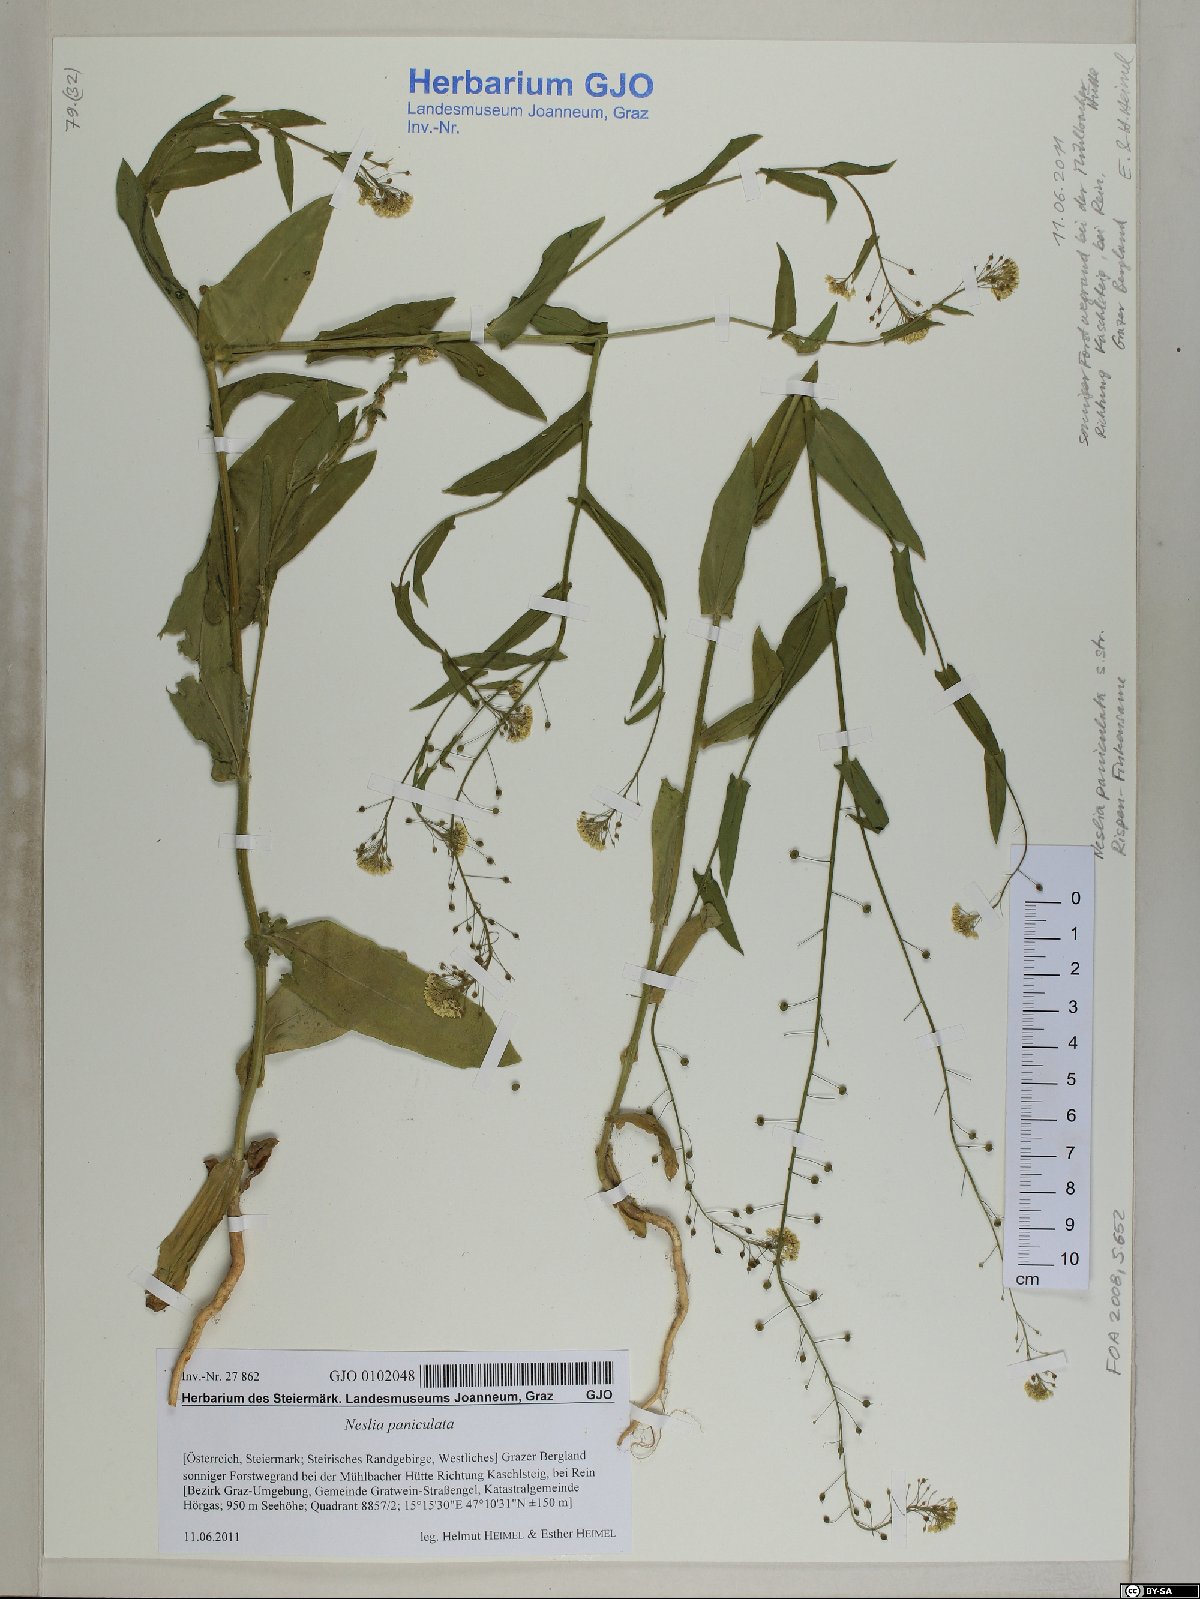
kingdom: Plantae
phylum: Tracheophyta
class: Magnoliopsida
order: Brassicales
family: Brassicaceae
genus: Neslia
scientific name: Neslia paniculata
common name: Ball mustard
